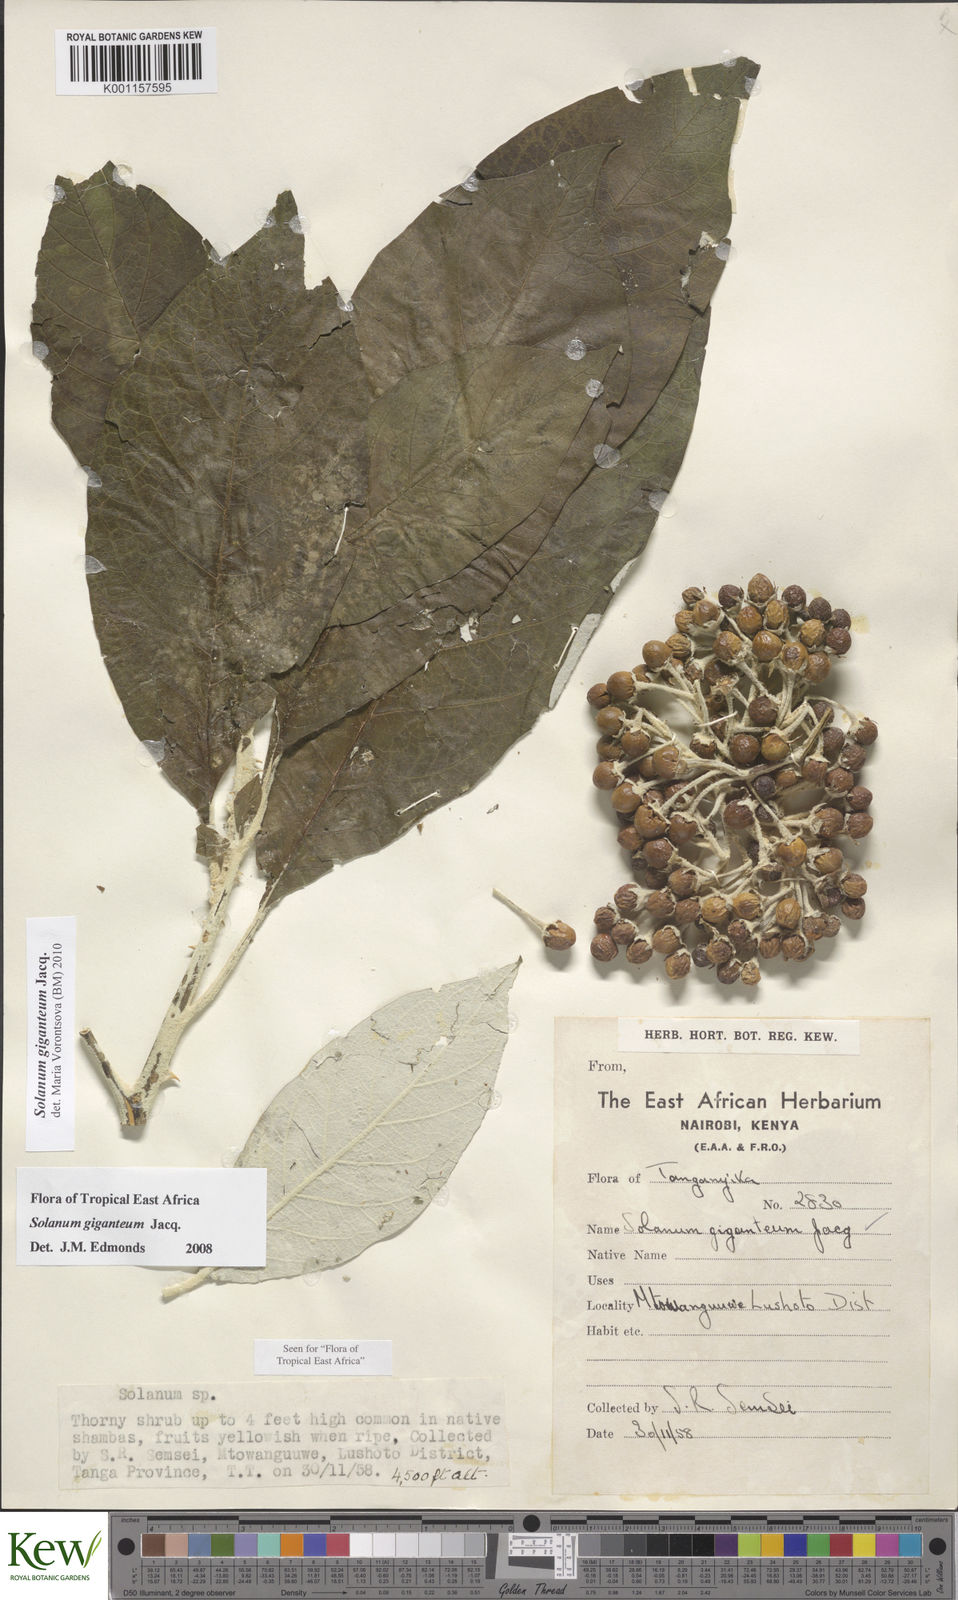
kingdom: Plantae
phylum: Tracheophyta
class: Magnoliopsida
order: Solanales
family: Solanaceae
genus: Solanum
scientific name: Solanum giganteum
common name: Healing-leaf-tree
